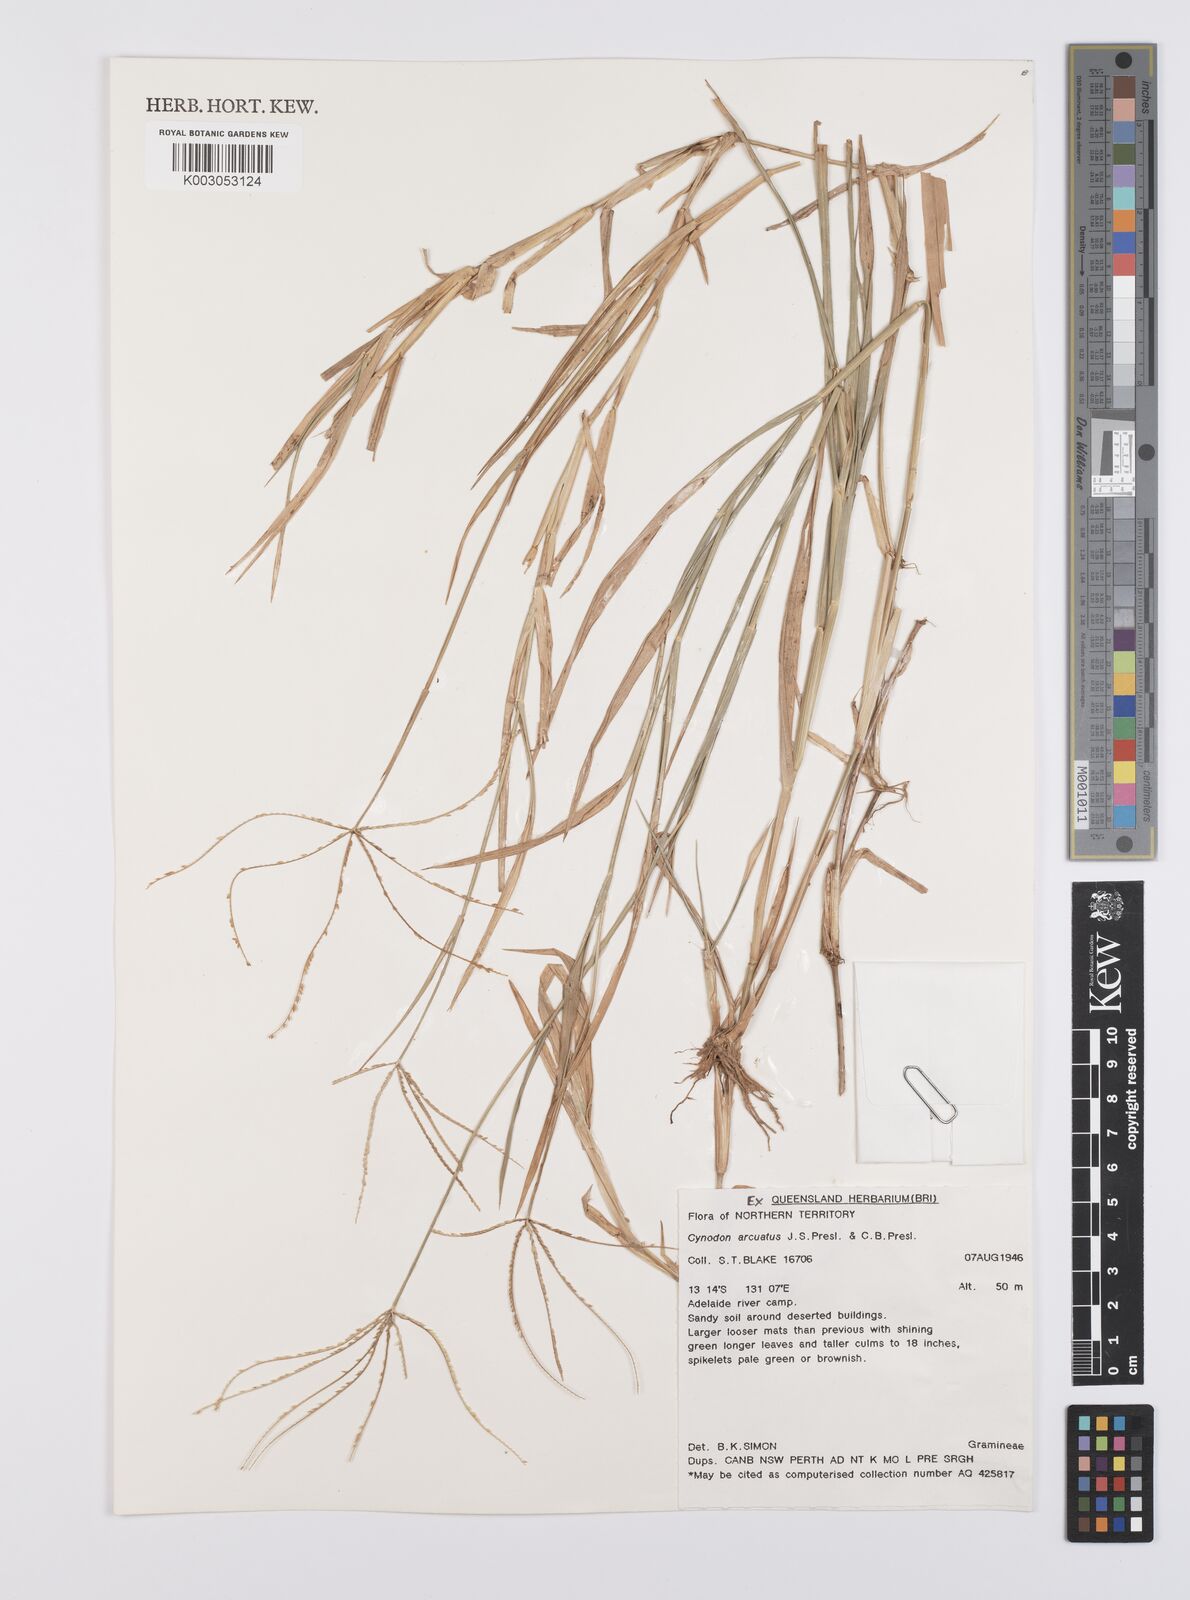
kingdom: Plantae
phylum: Tracheophyta
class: Liliopsida
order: Poales
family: Poaceae
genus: Cynodon
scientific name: Cynodon radiatus
